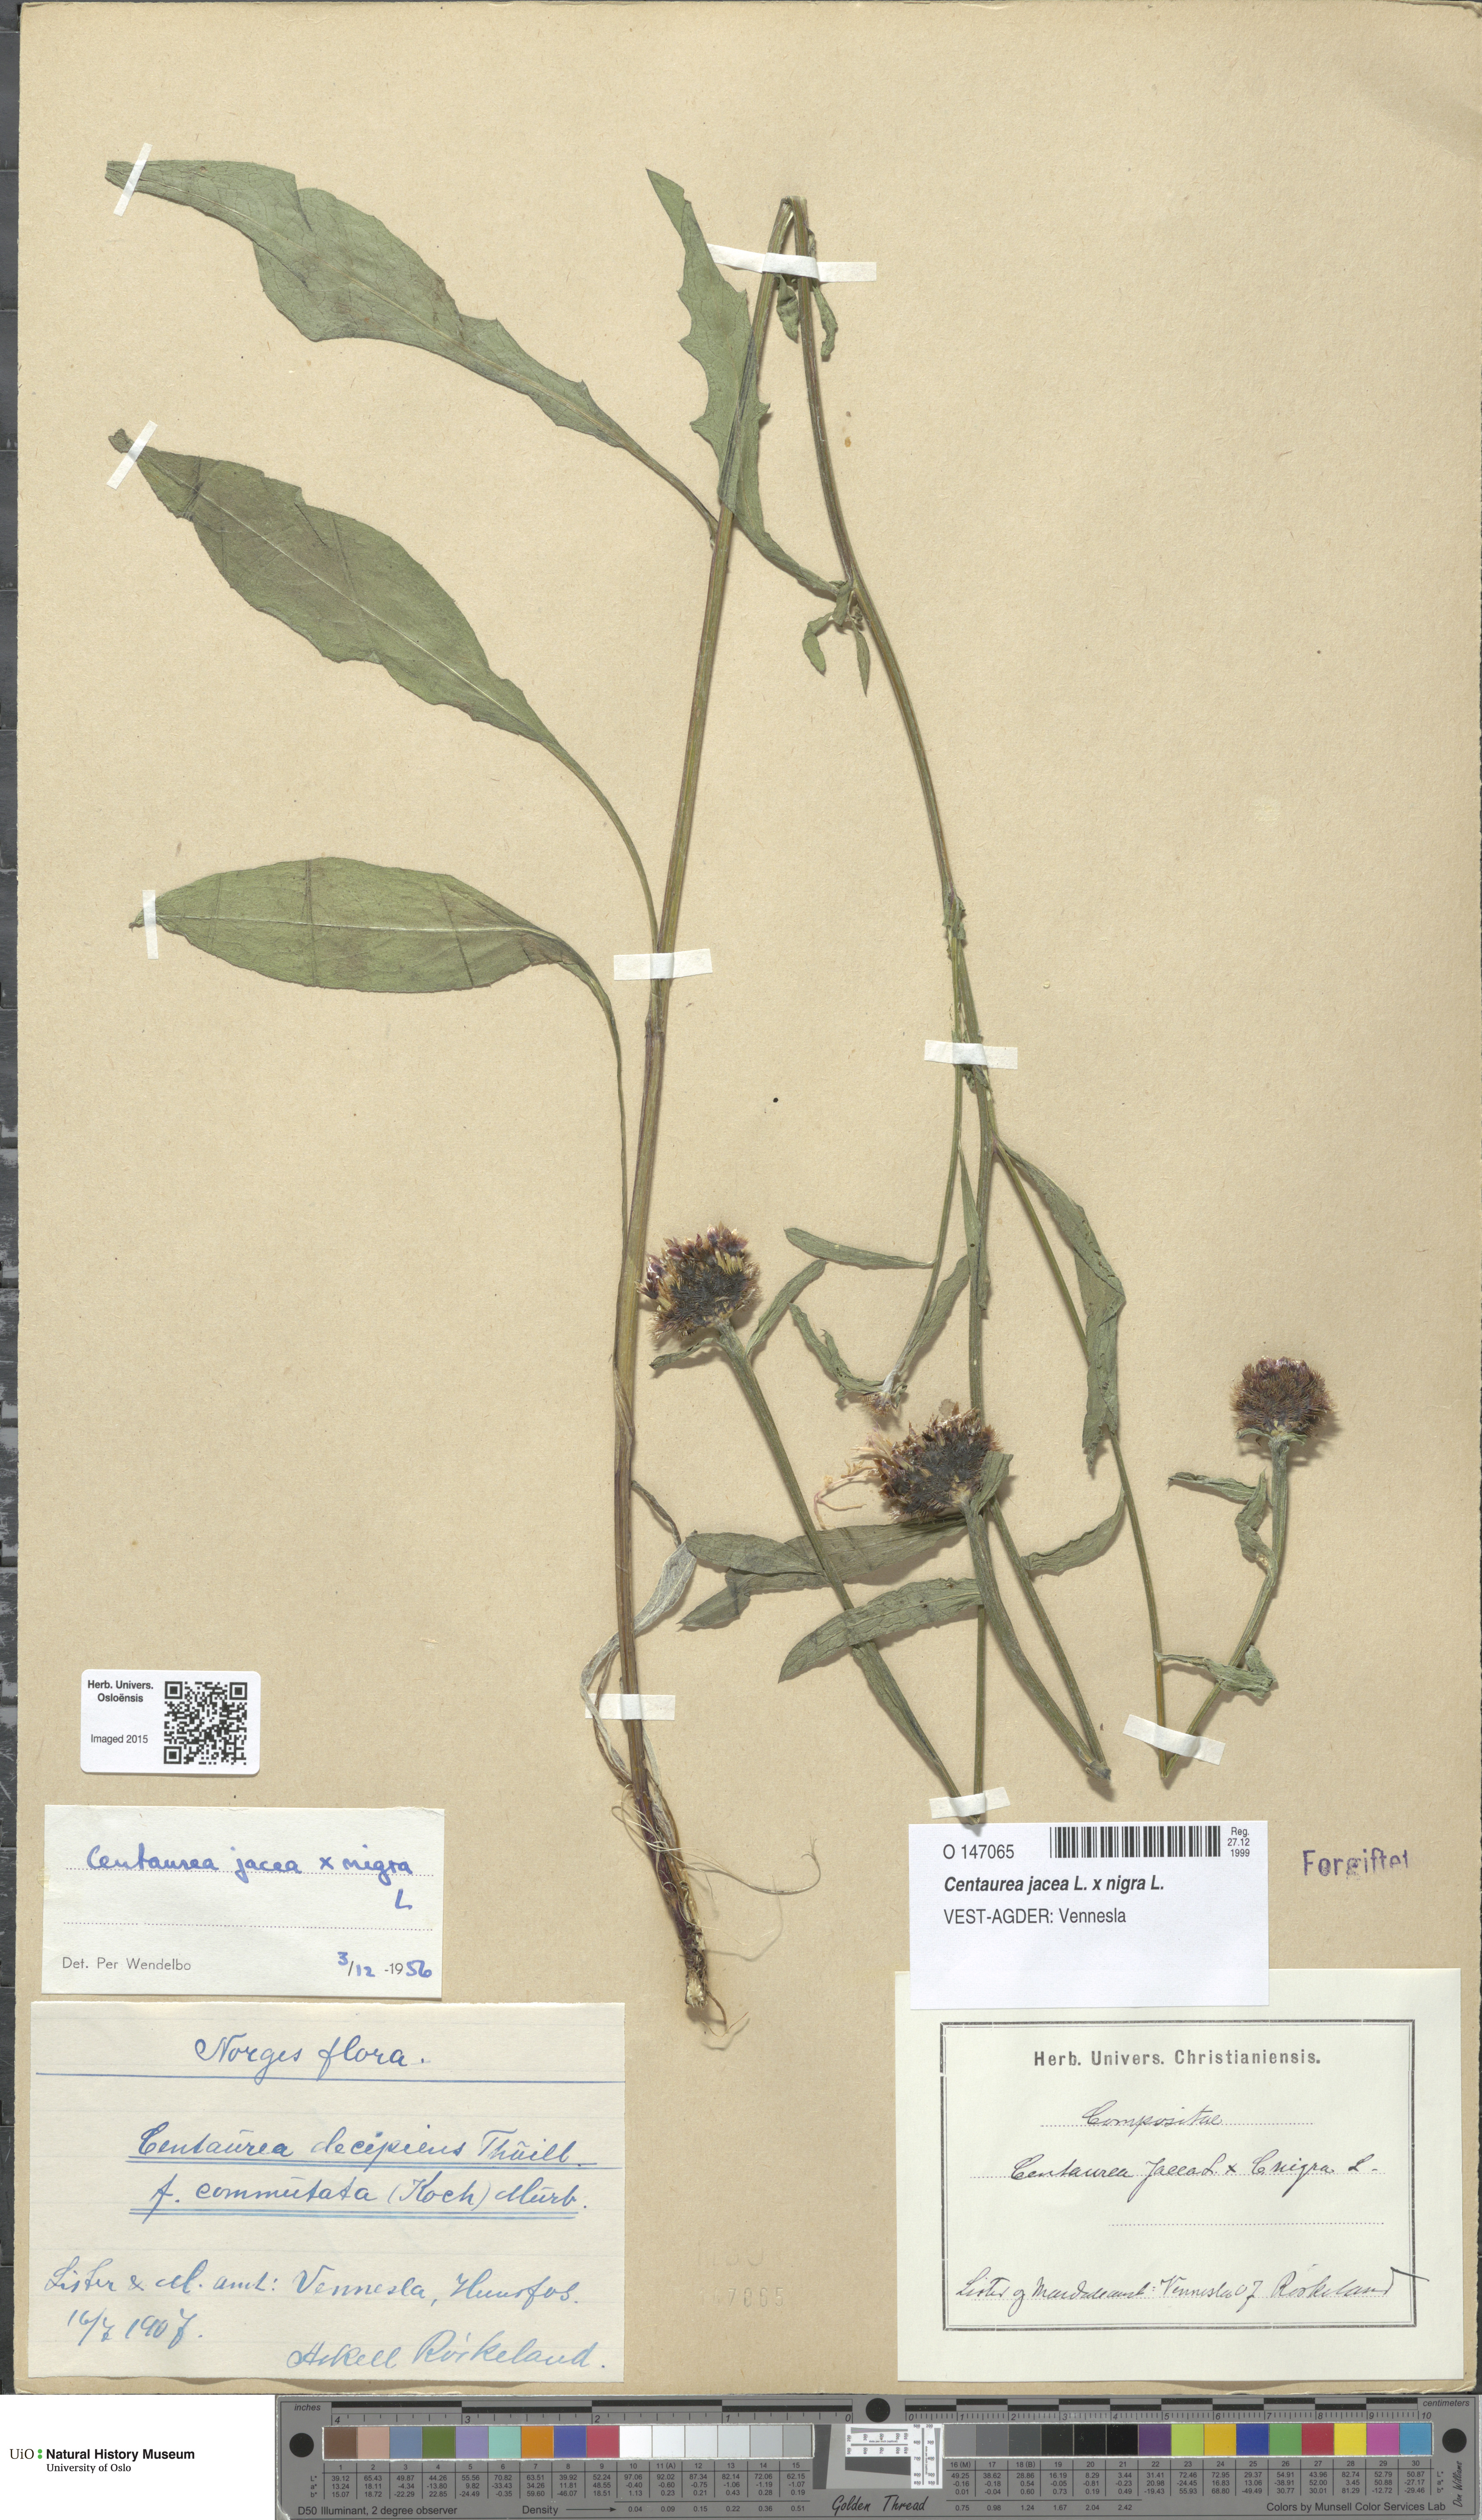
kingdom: Plantae
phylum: Tracheophyta
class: Magnoliopsida
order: Asterales
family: Asteraceae
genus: Centaurea
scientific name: Centaurea
